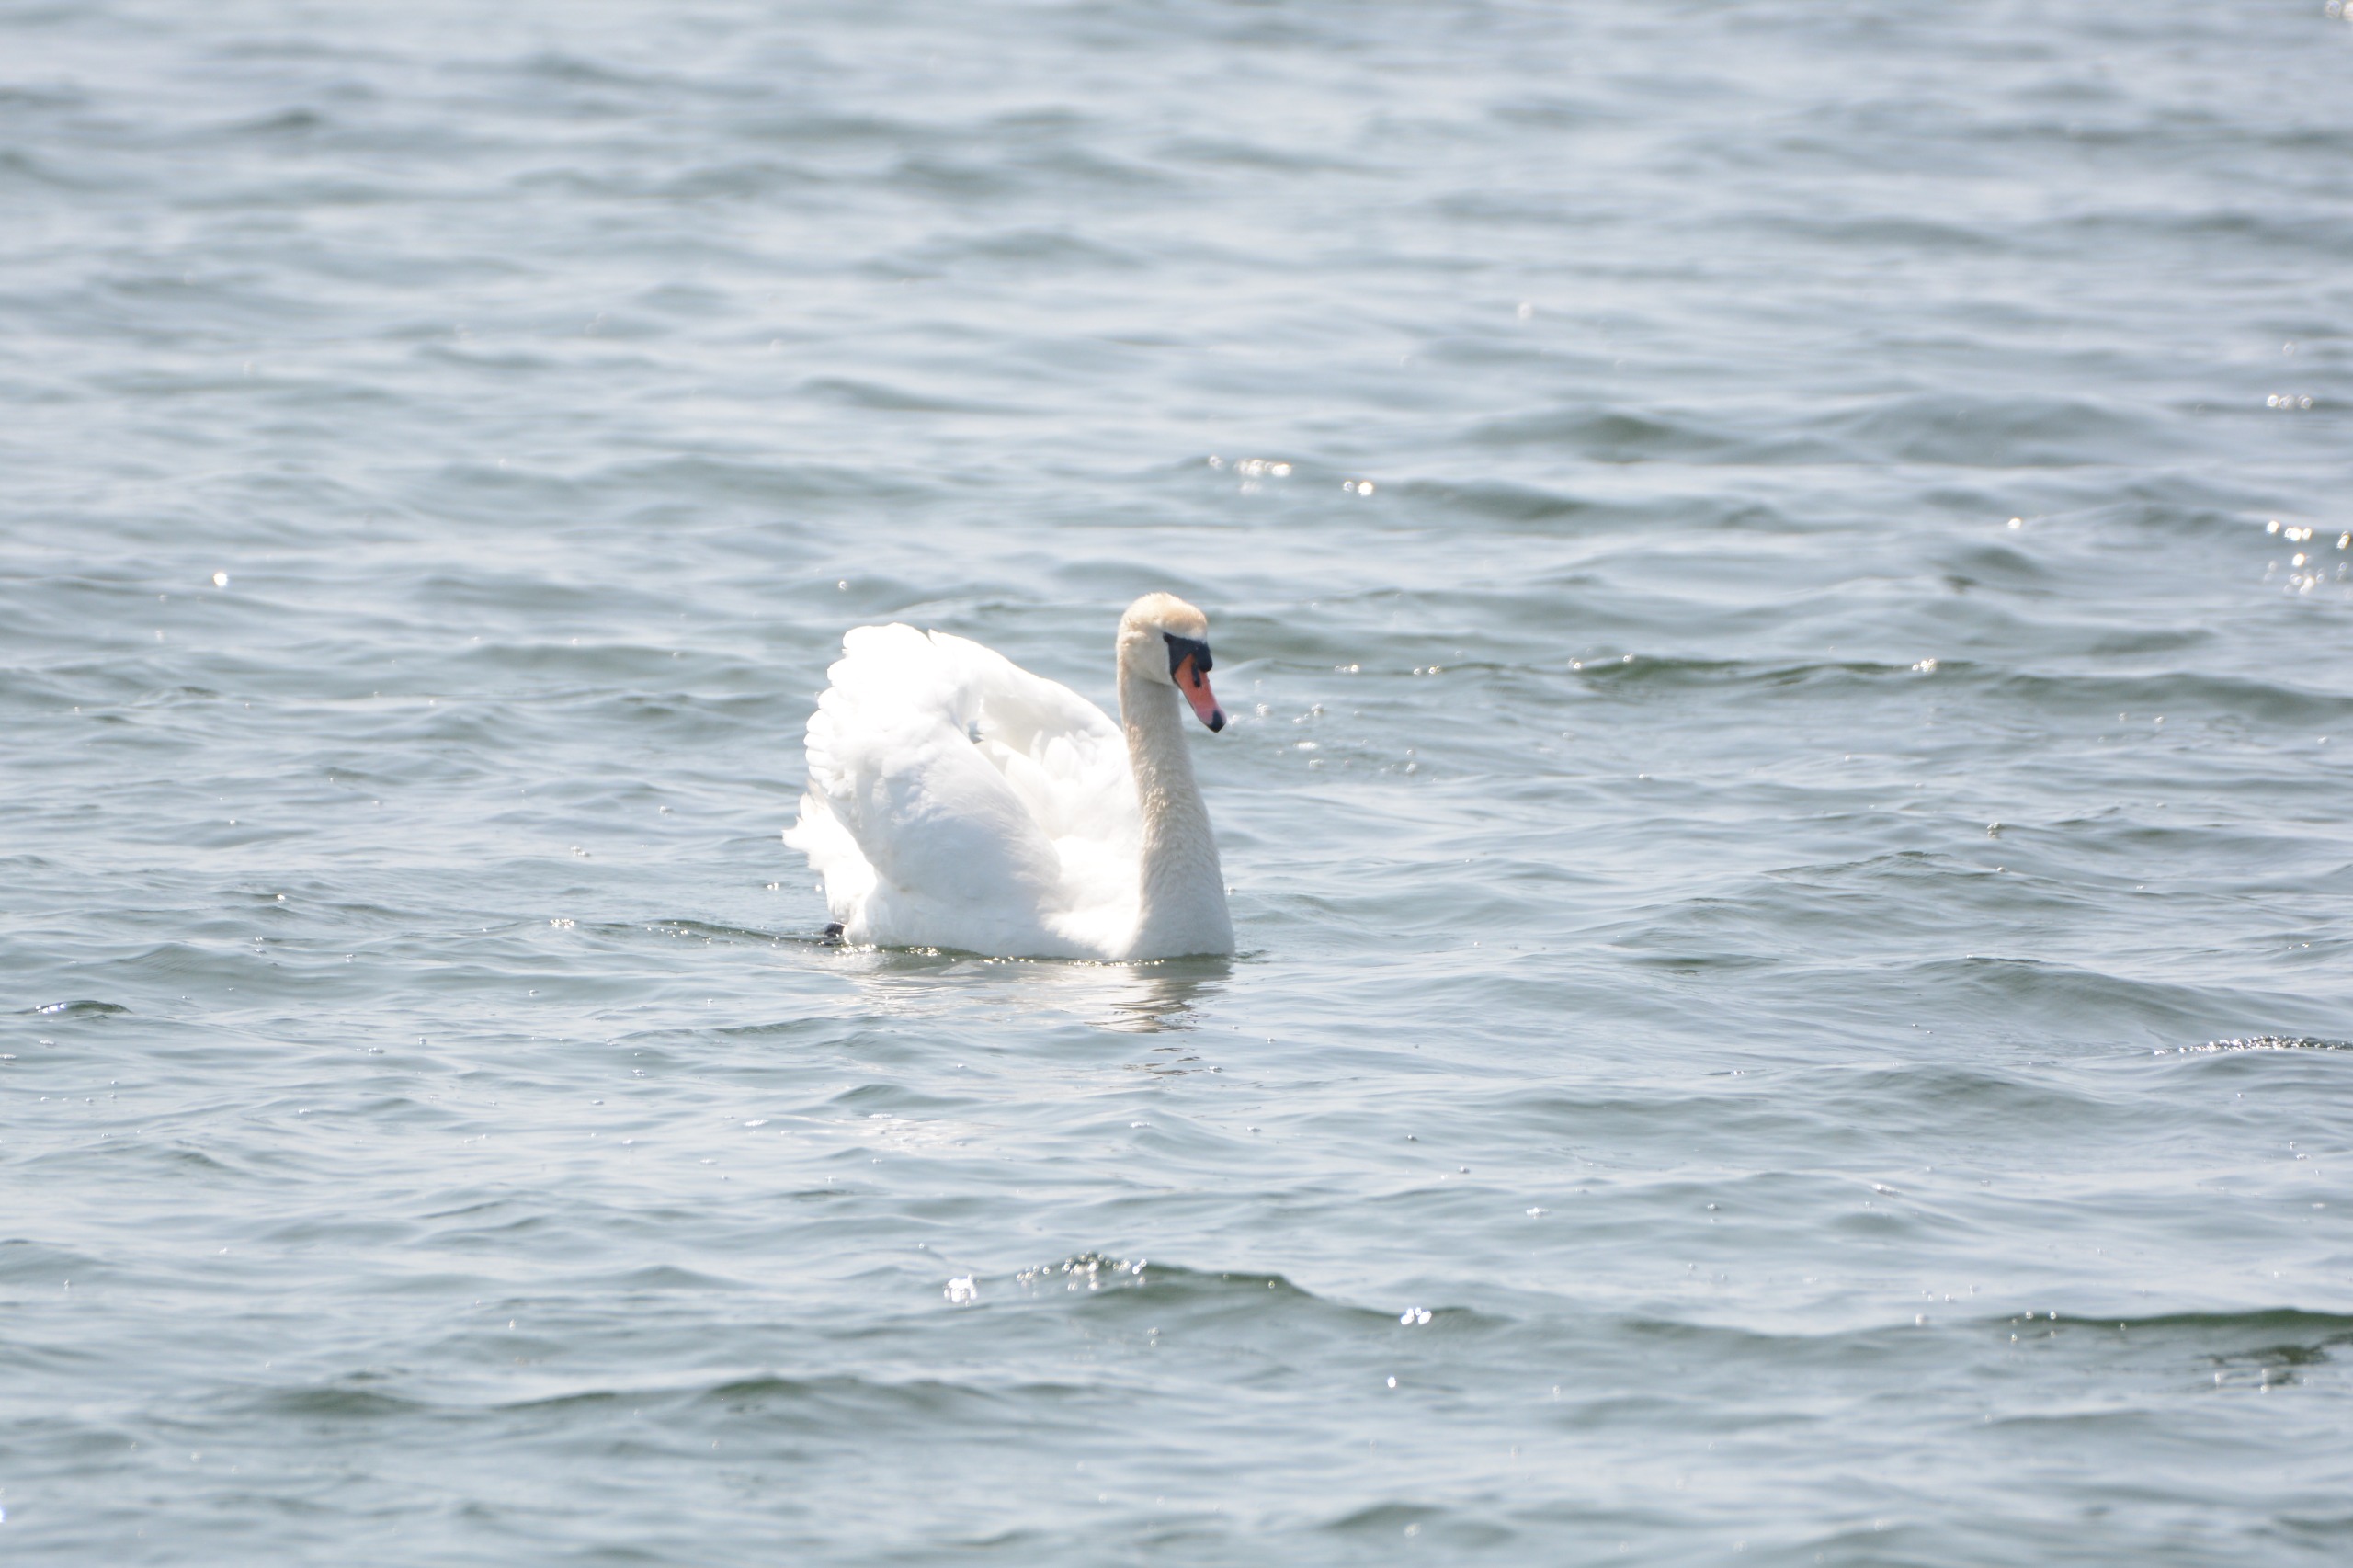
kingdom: Animalia
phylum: Chordata
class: Aves
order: Anseriformes
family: Anatidae
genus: Cygnus
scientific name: Cygnus olor
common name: Knopsvane
